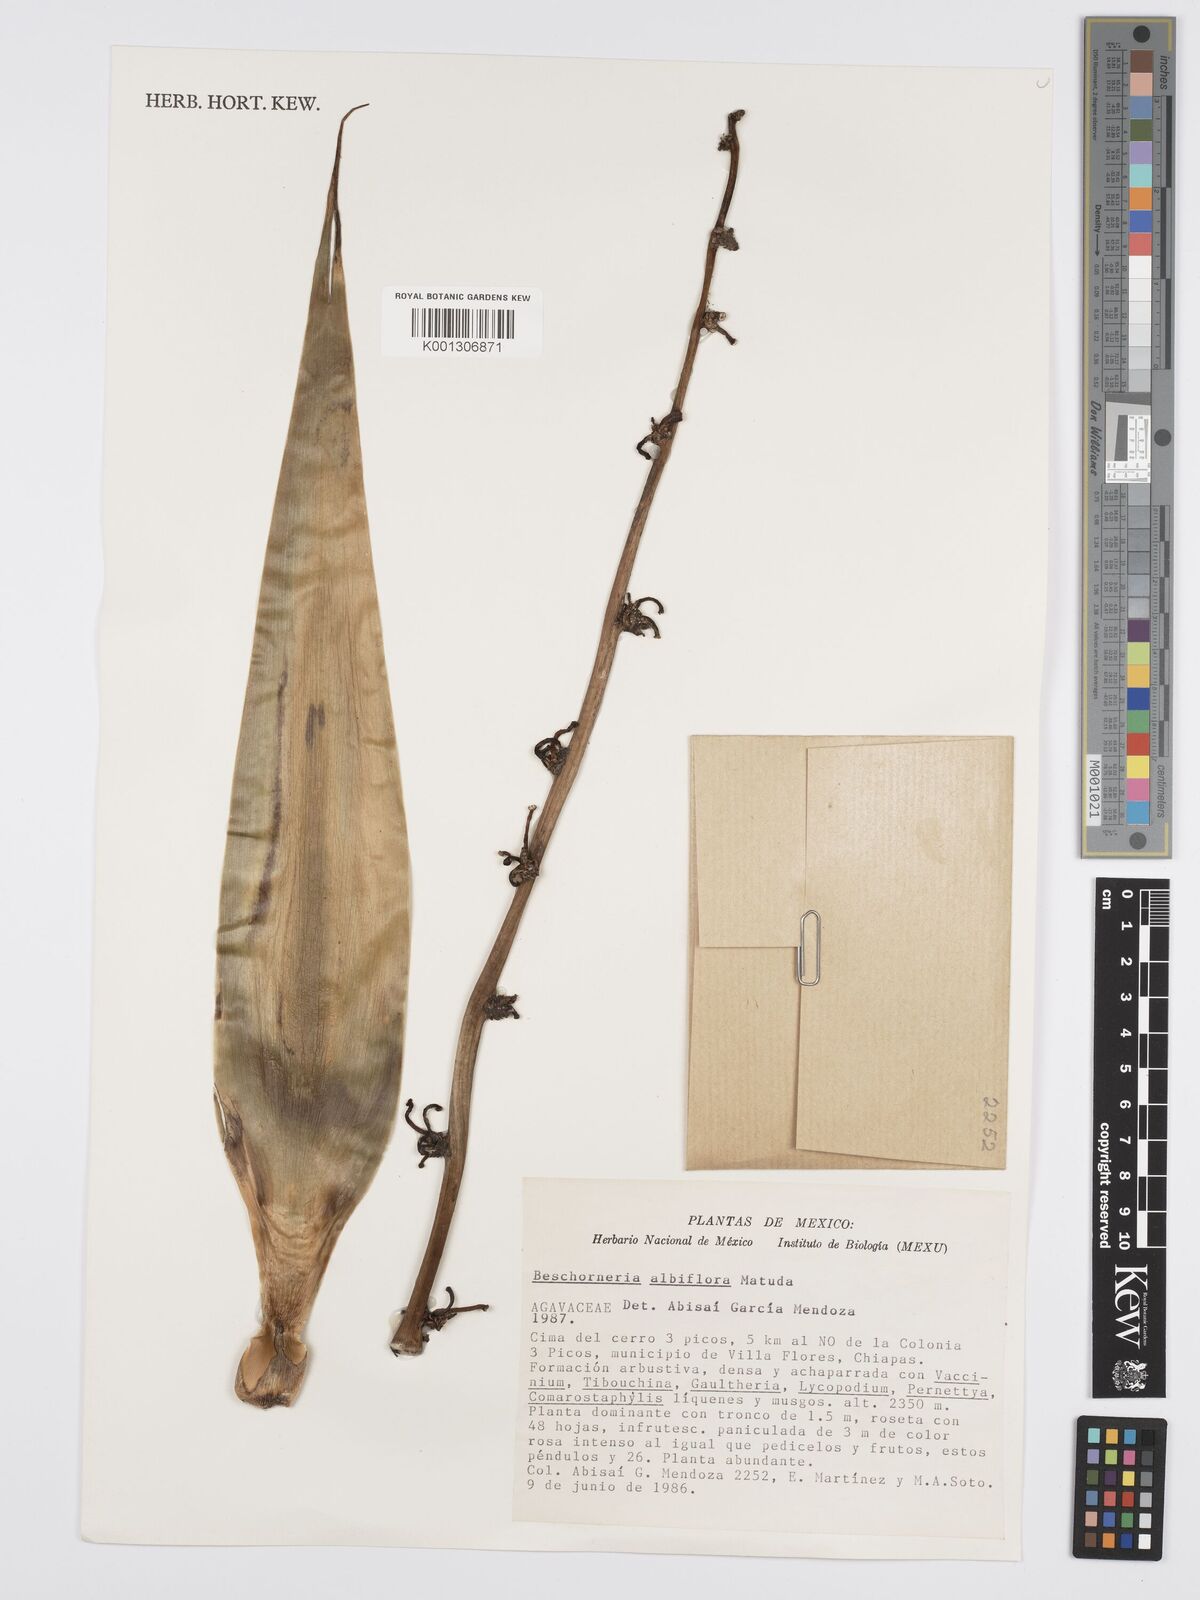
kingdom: Plantae
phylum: Tracheophyta
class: Liliopsida
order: Asparagales
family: Asparagaceae
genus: Beschorneria
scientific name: Beschorneria albiflora
